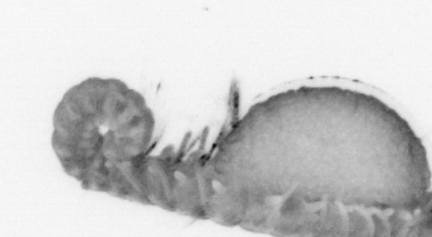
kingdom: Animalia
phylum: Annelida
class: Polychaeta
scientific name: Polychaeta
